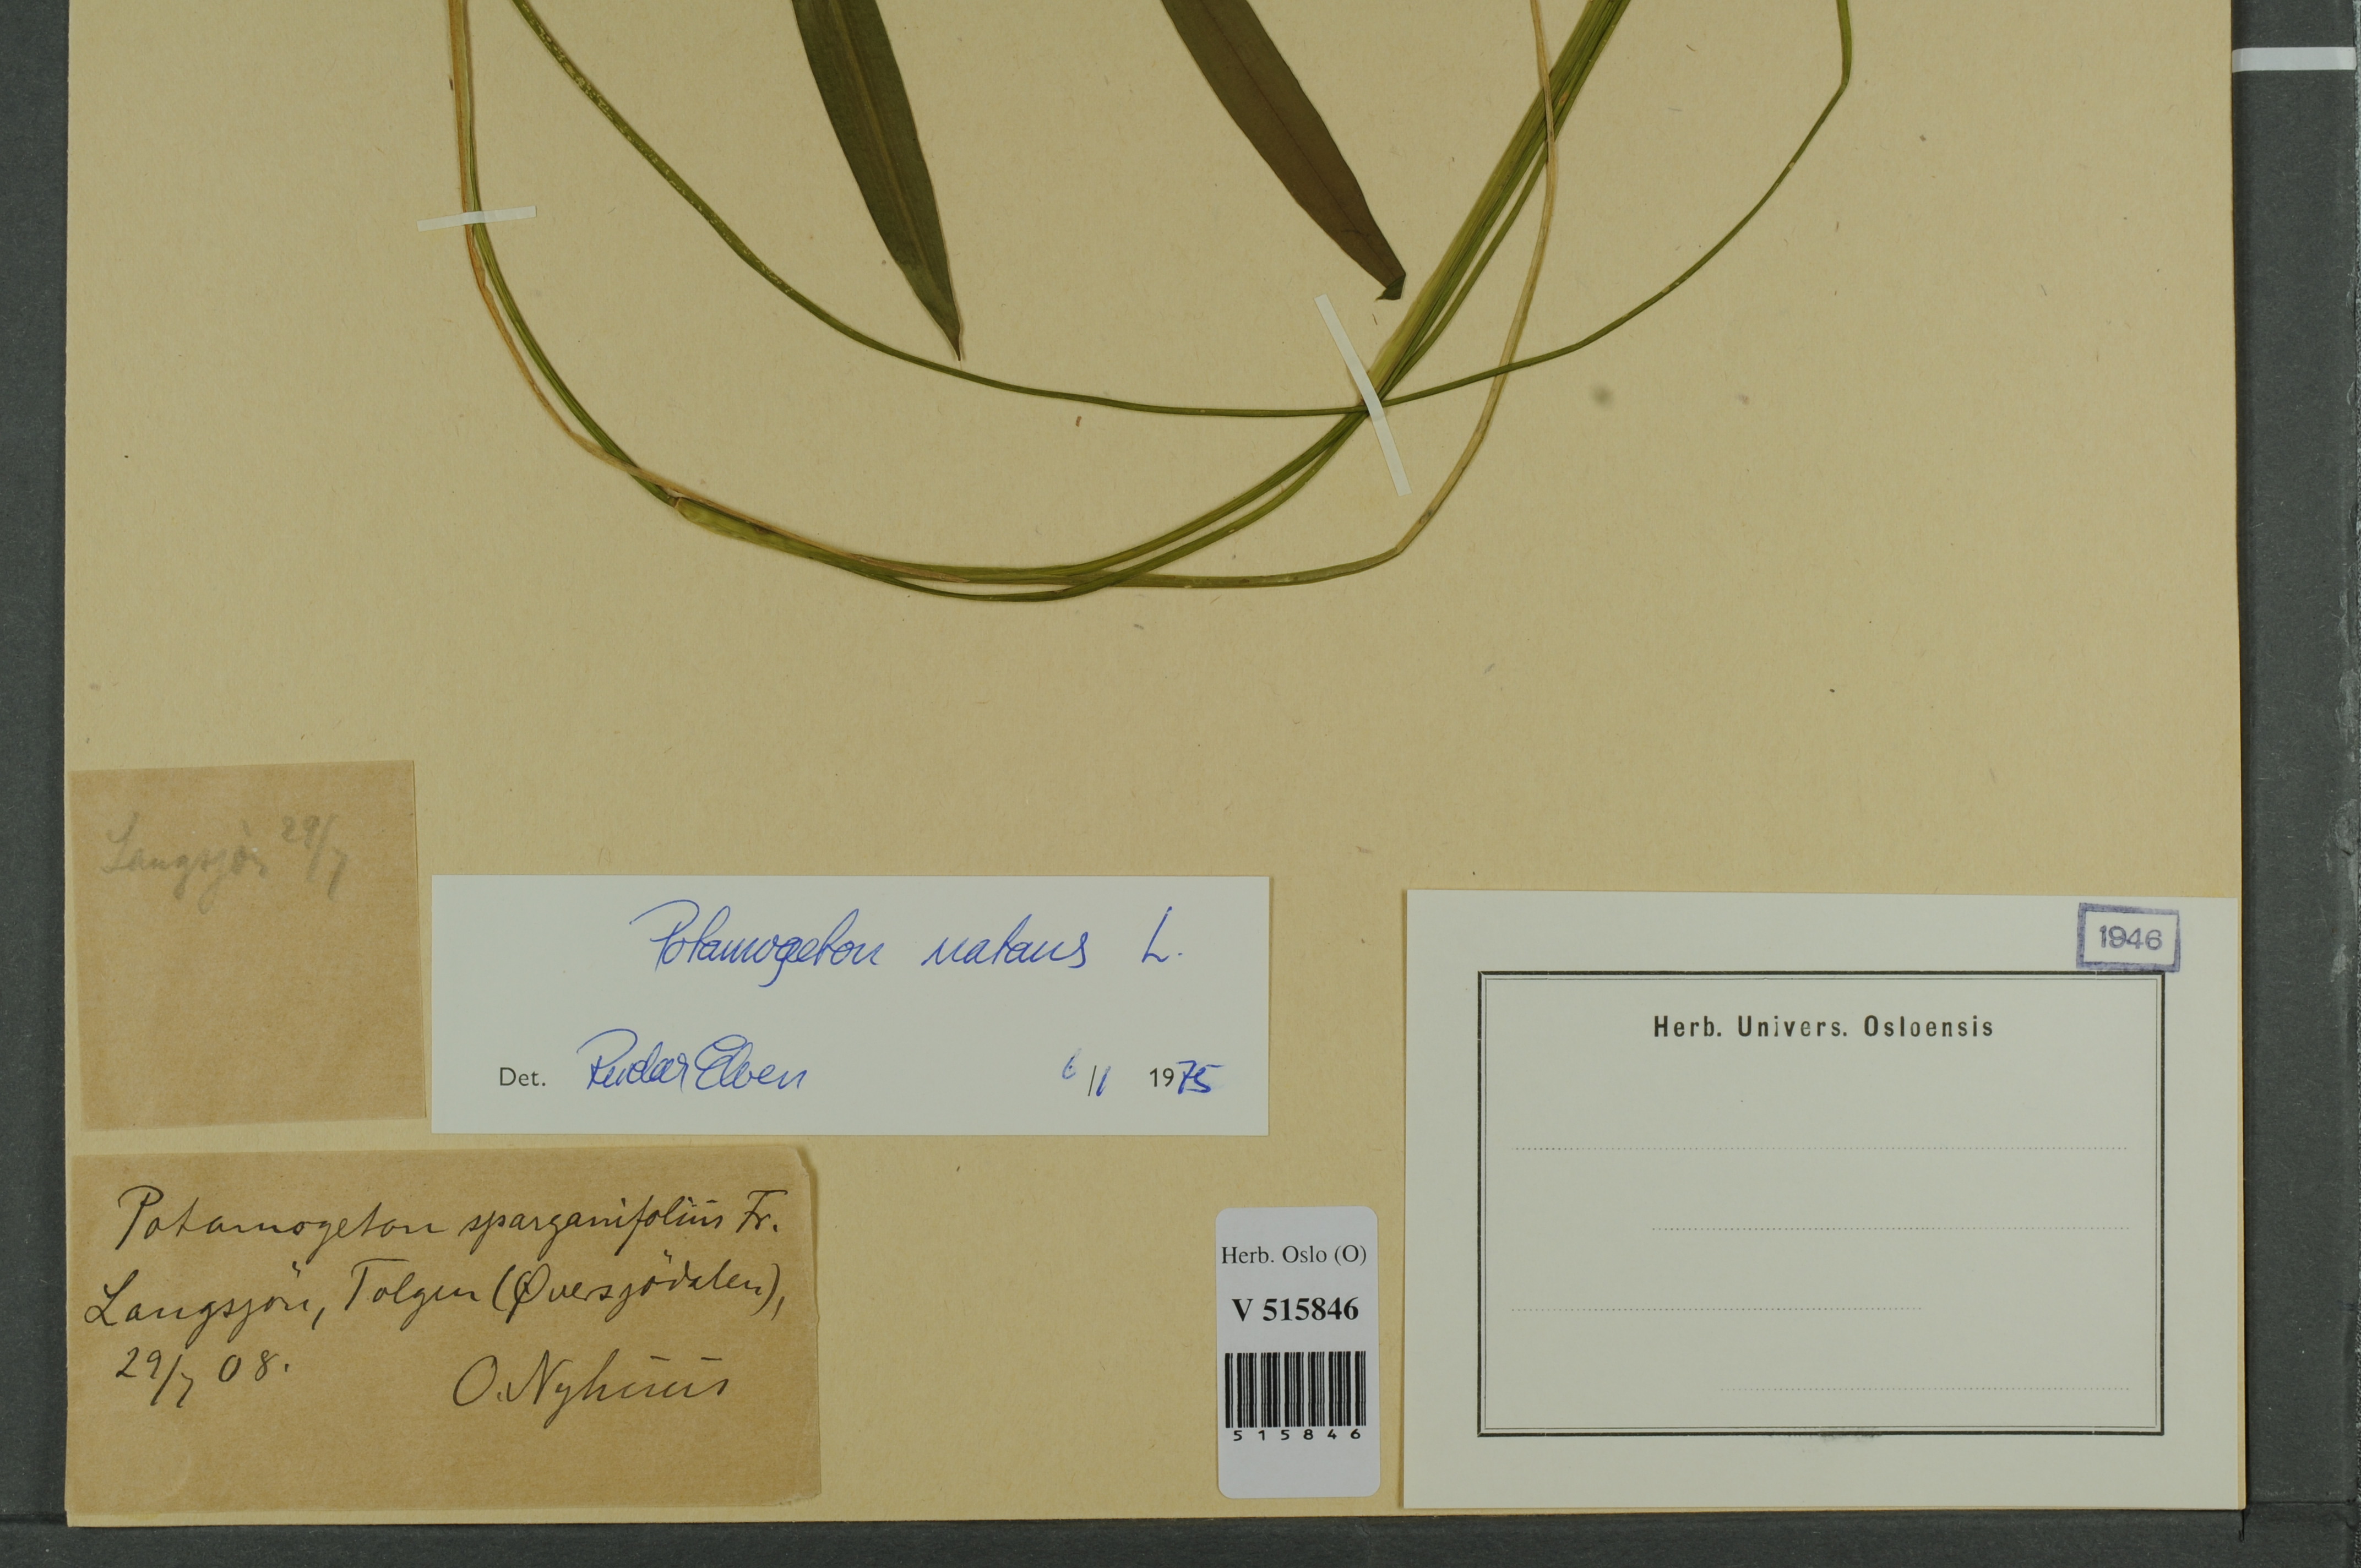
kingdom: Plantae
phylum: Tracheophyta
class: Liliopsida
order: Alismatales
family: Potamogetonaceae
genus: Potamogeton
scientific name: Potamogeton natans
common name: Broad-leaved pondweed
